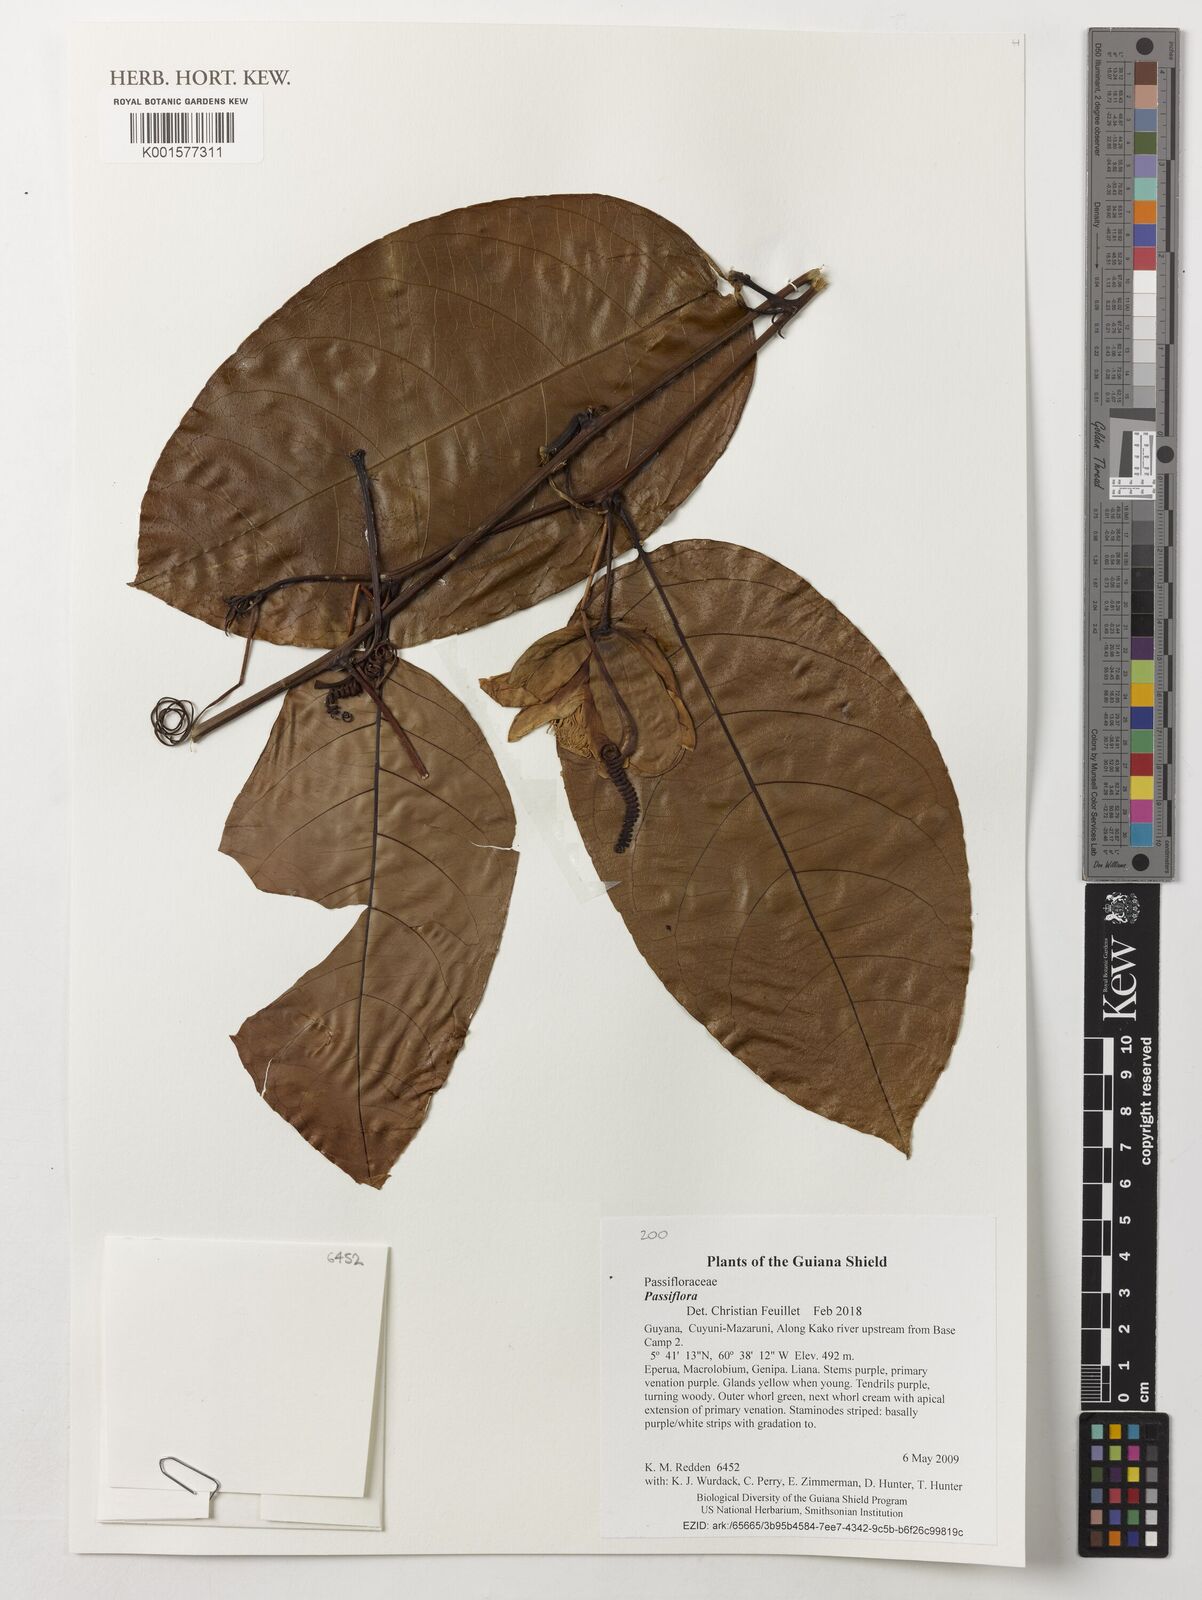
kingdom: Plantae
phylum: Tracheophyta
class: Magnoliopsida
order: Malpighiales
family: Passifloraceae
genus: Passiflora
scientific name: Passiflora
